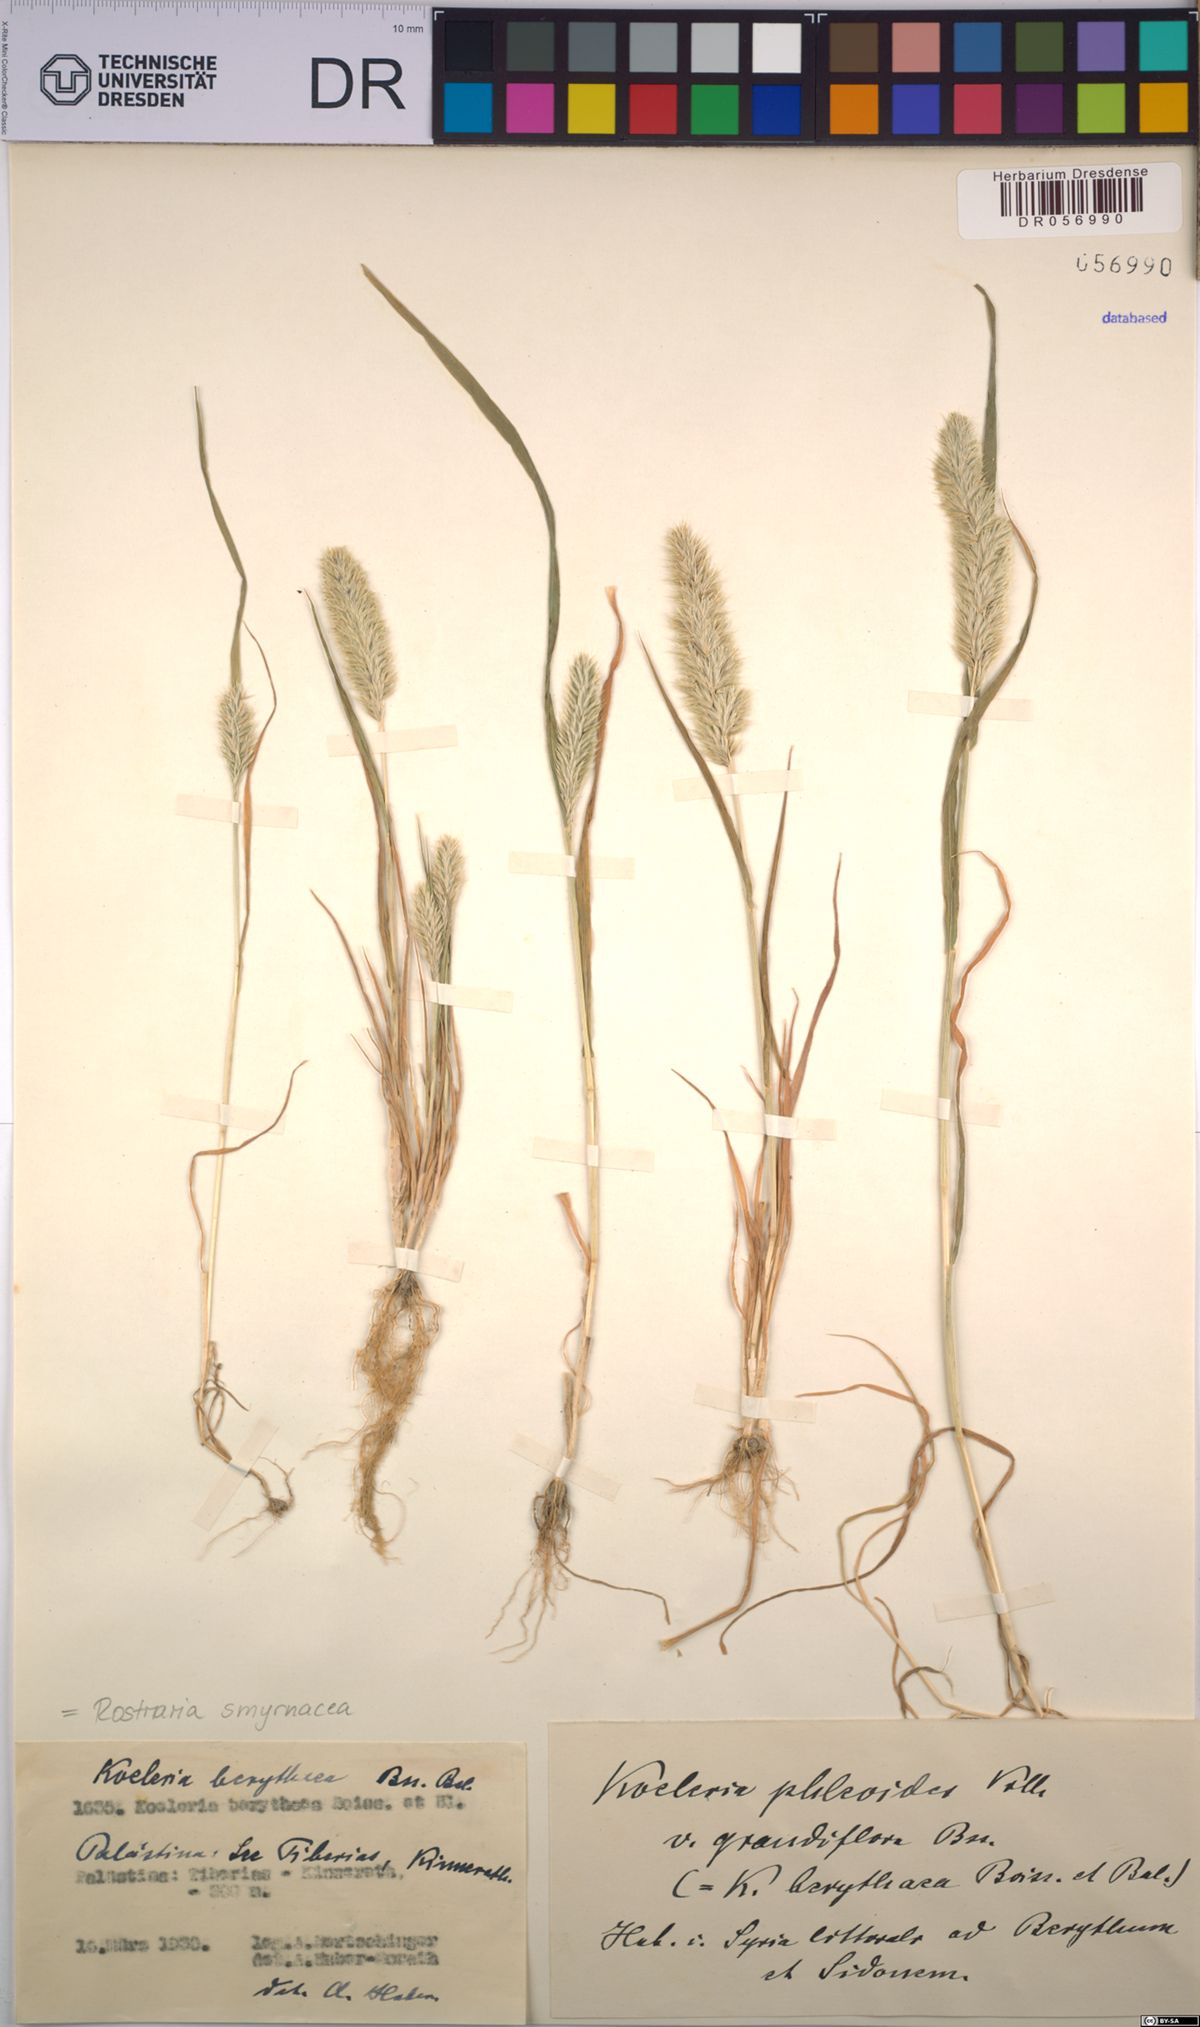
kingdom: Plantae
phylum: Tracheophyta
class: Liliopsida
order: Poales
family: Poaceae
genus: Rostraria
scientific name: Rostraria cristata
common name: Mediterranean hair-grass
